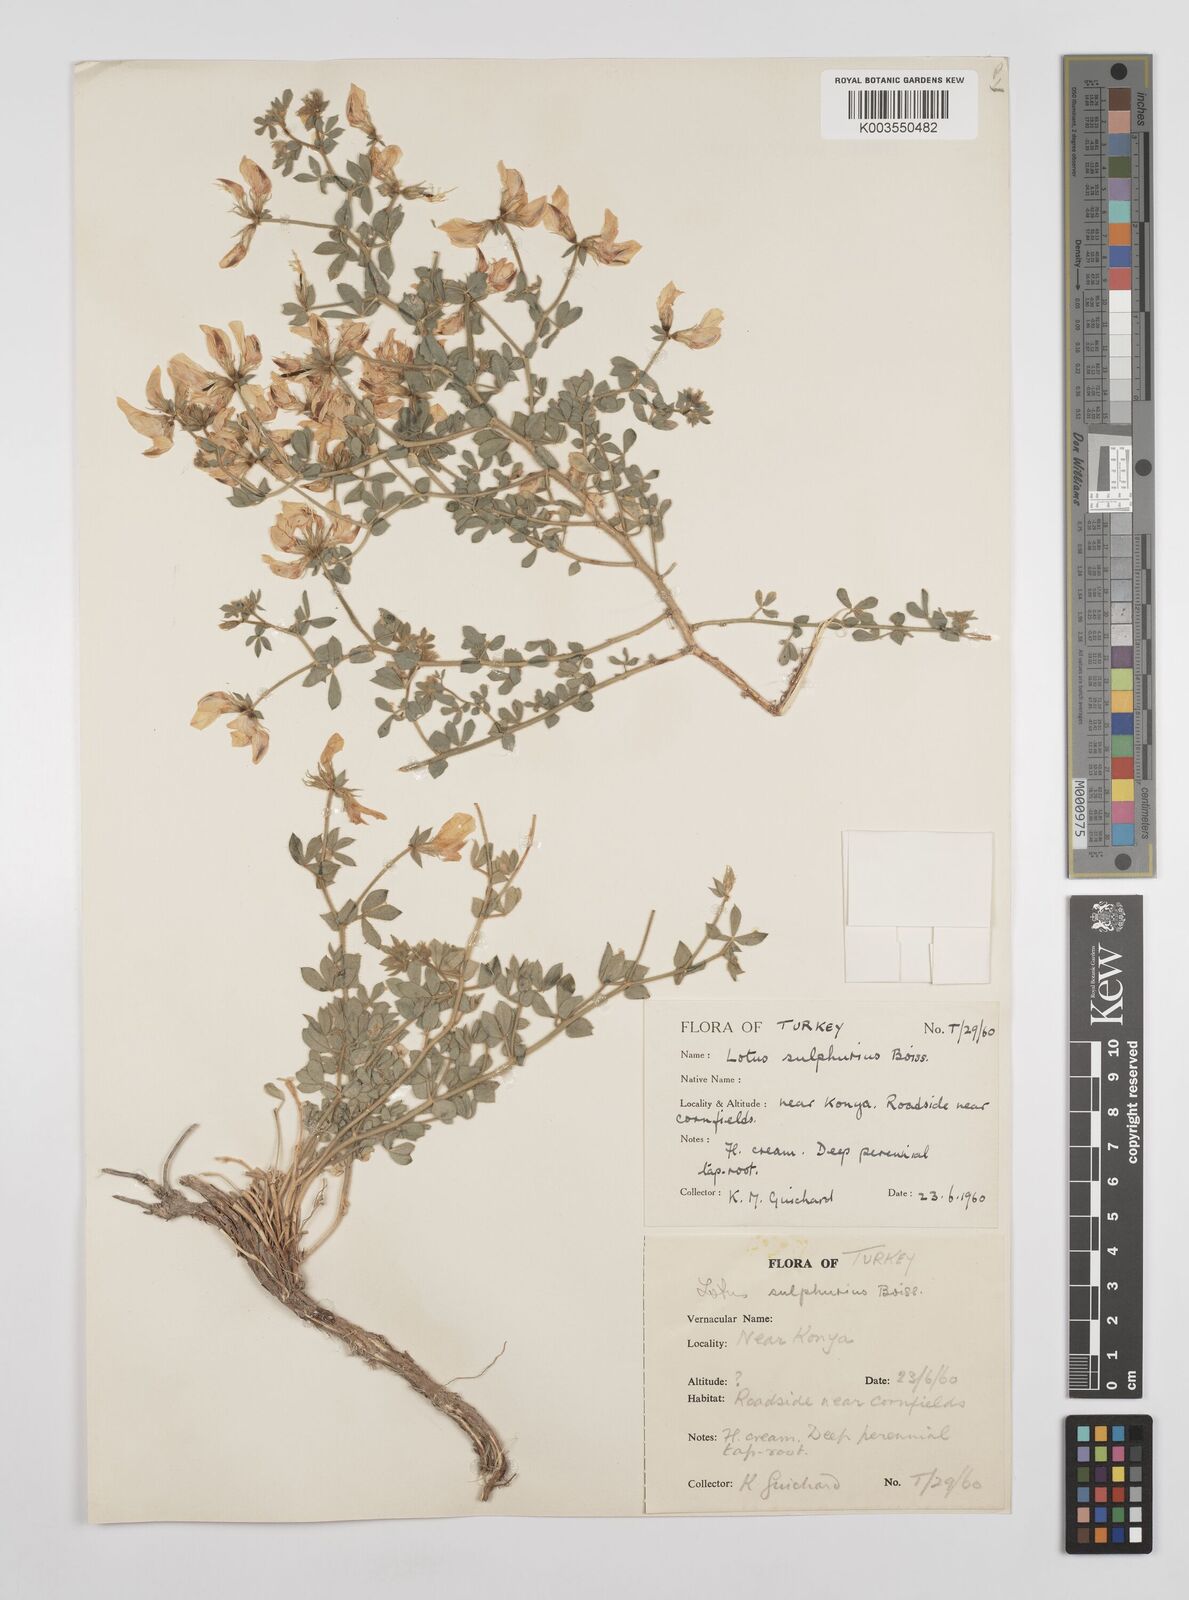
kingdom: Plantae
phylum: Tracheophyta
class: Magnoliopsida
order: Fabales
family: Fabaceae
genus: Lotus
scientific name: Lotus aegaeus
